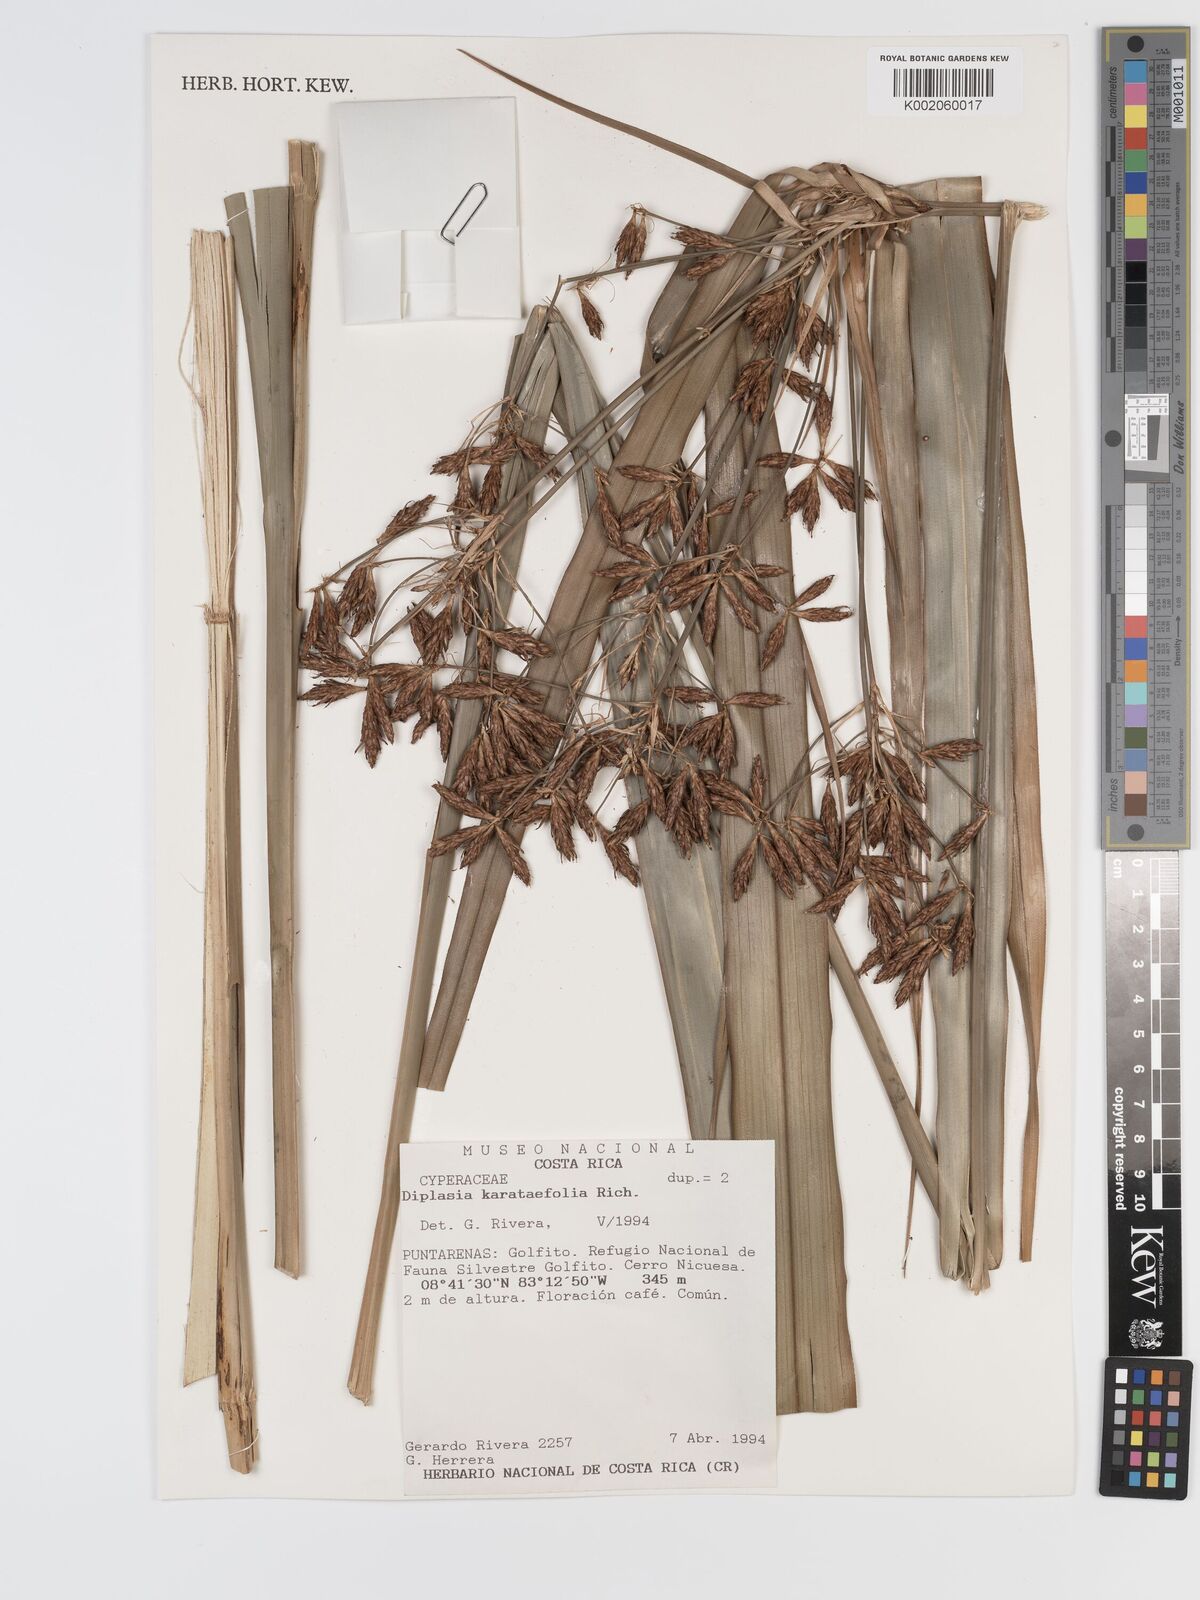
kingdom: Plantae
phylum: Tracheophyta
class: Liliopsida
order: Poales
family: Cyperaceae
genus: Diplasia
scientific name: Diplasia karatifolia
